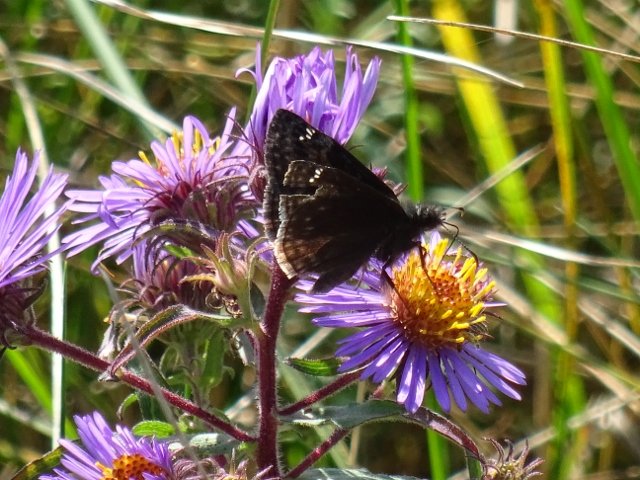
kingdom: Animalia
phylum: Arthropoda
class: Insecta
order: Lepidoptera
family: Hesperiidae
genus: Gesta
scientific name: Gesta
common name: Wild Indigo Duskywing
